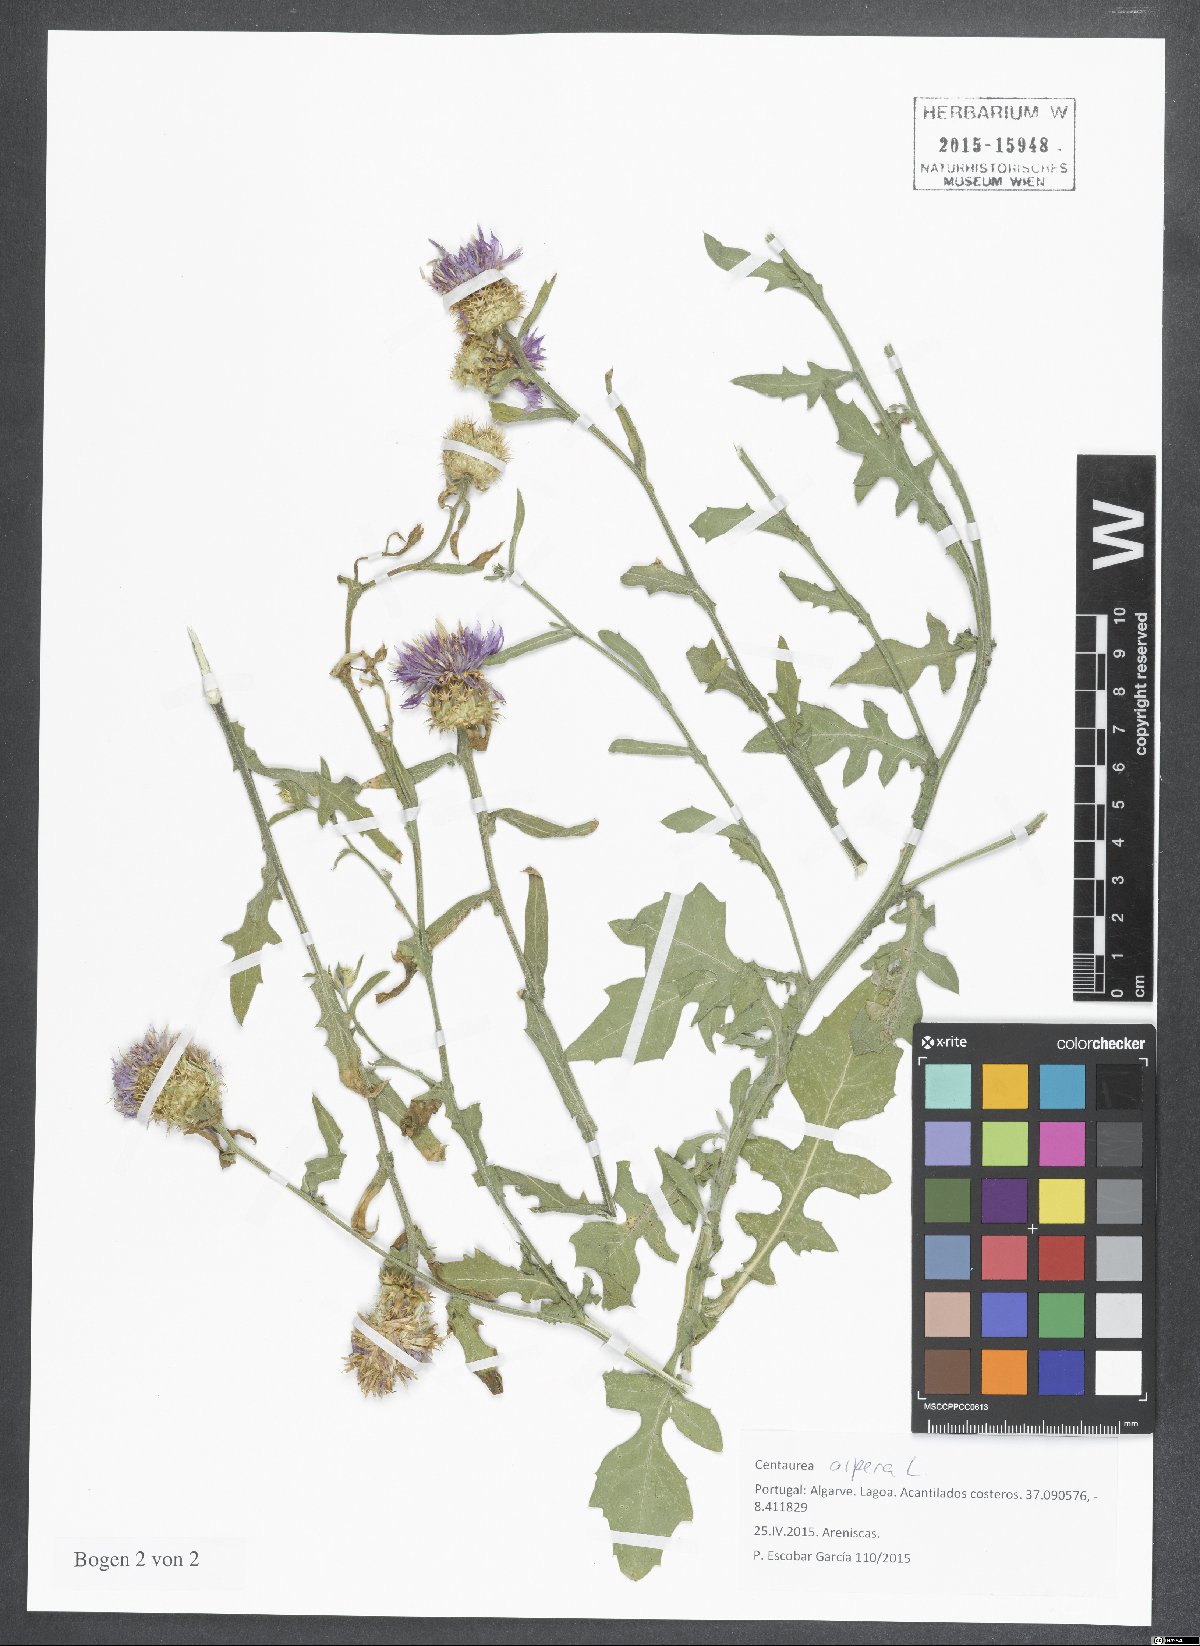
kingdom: Plantae
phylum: Tracheophyta
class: Magnoliopsida
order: Asterales
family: Asteraceae
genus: Centaurea
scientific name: Centaurea aspera
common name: Rough star-thistle
